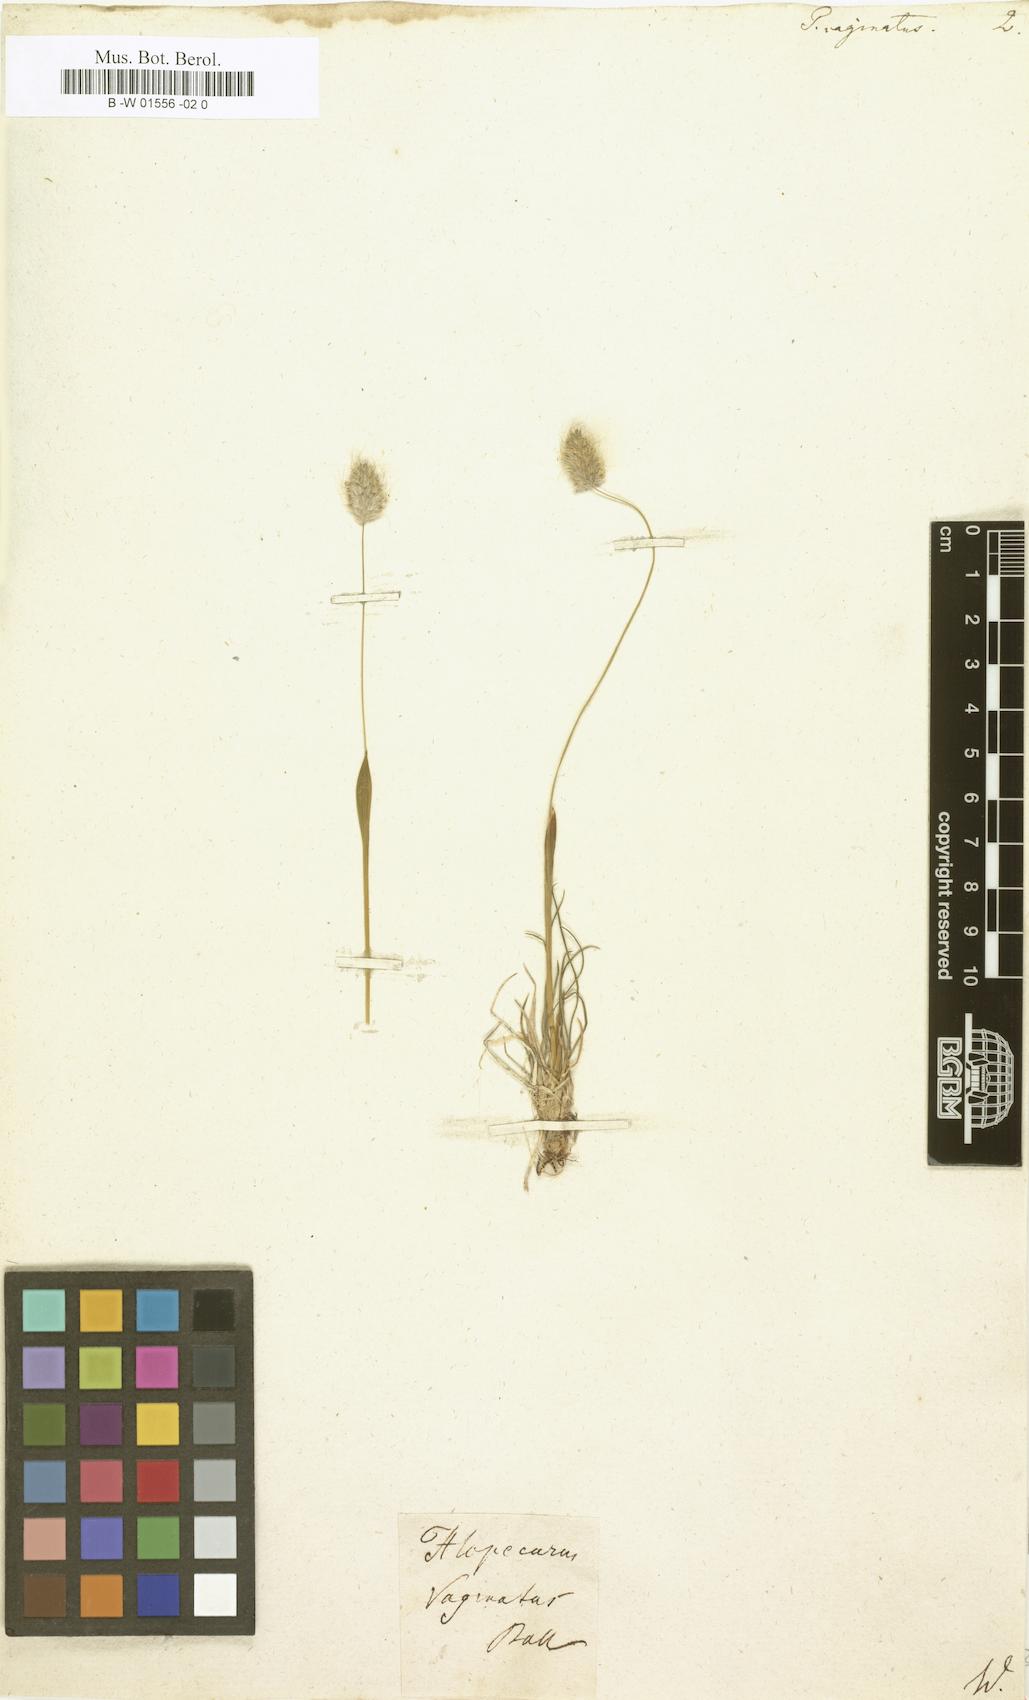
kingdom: Plantae
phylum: Tracheophyta
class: Liliopsida
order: Poales
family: Poaceae
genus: Alopecurus
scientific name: Alopecurus vaginatus
